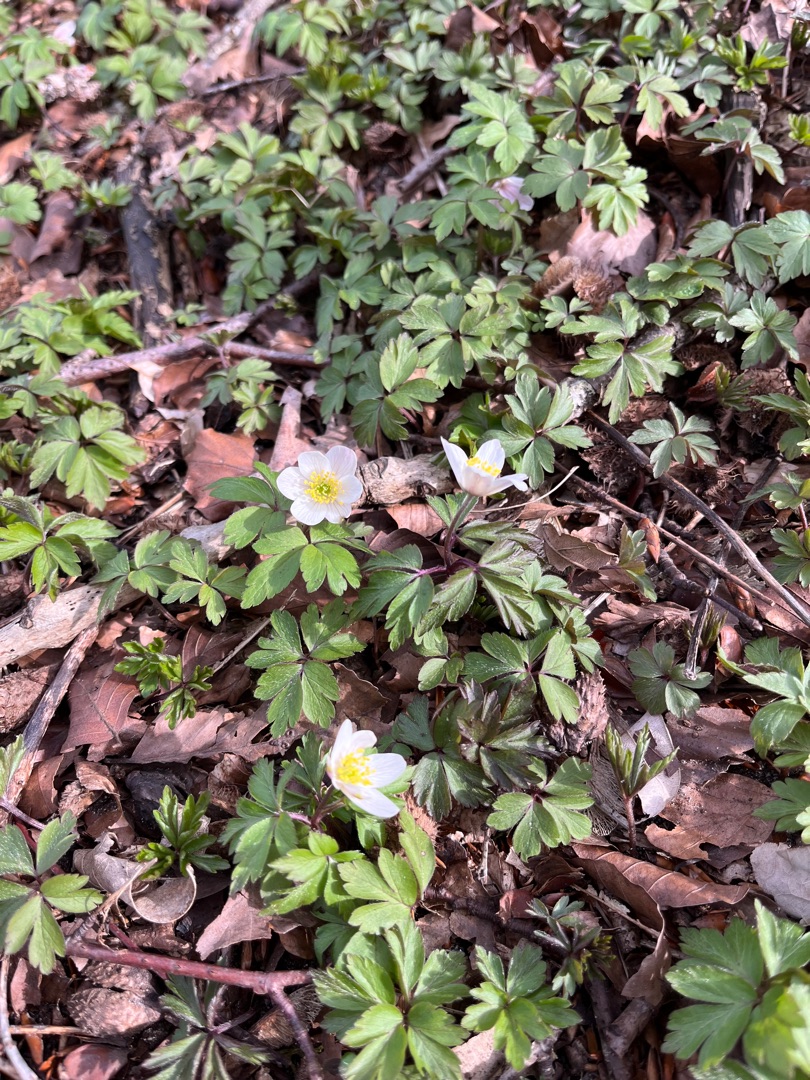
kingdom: Plantae
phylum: Tracheophyta
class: Magnoliopsida
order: Ranunculales
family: Ranunculaceae
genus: Anemone
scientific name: Anemone nemorosa
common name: Hvid anemone
